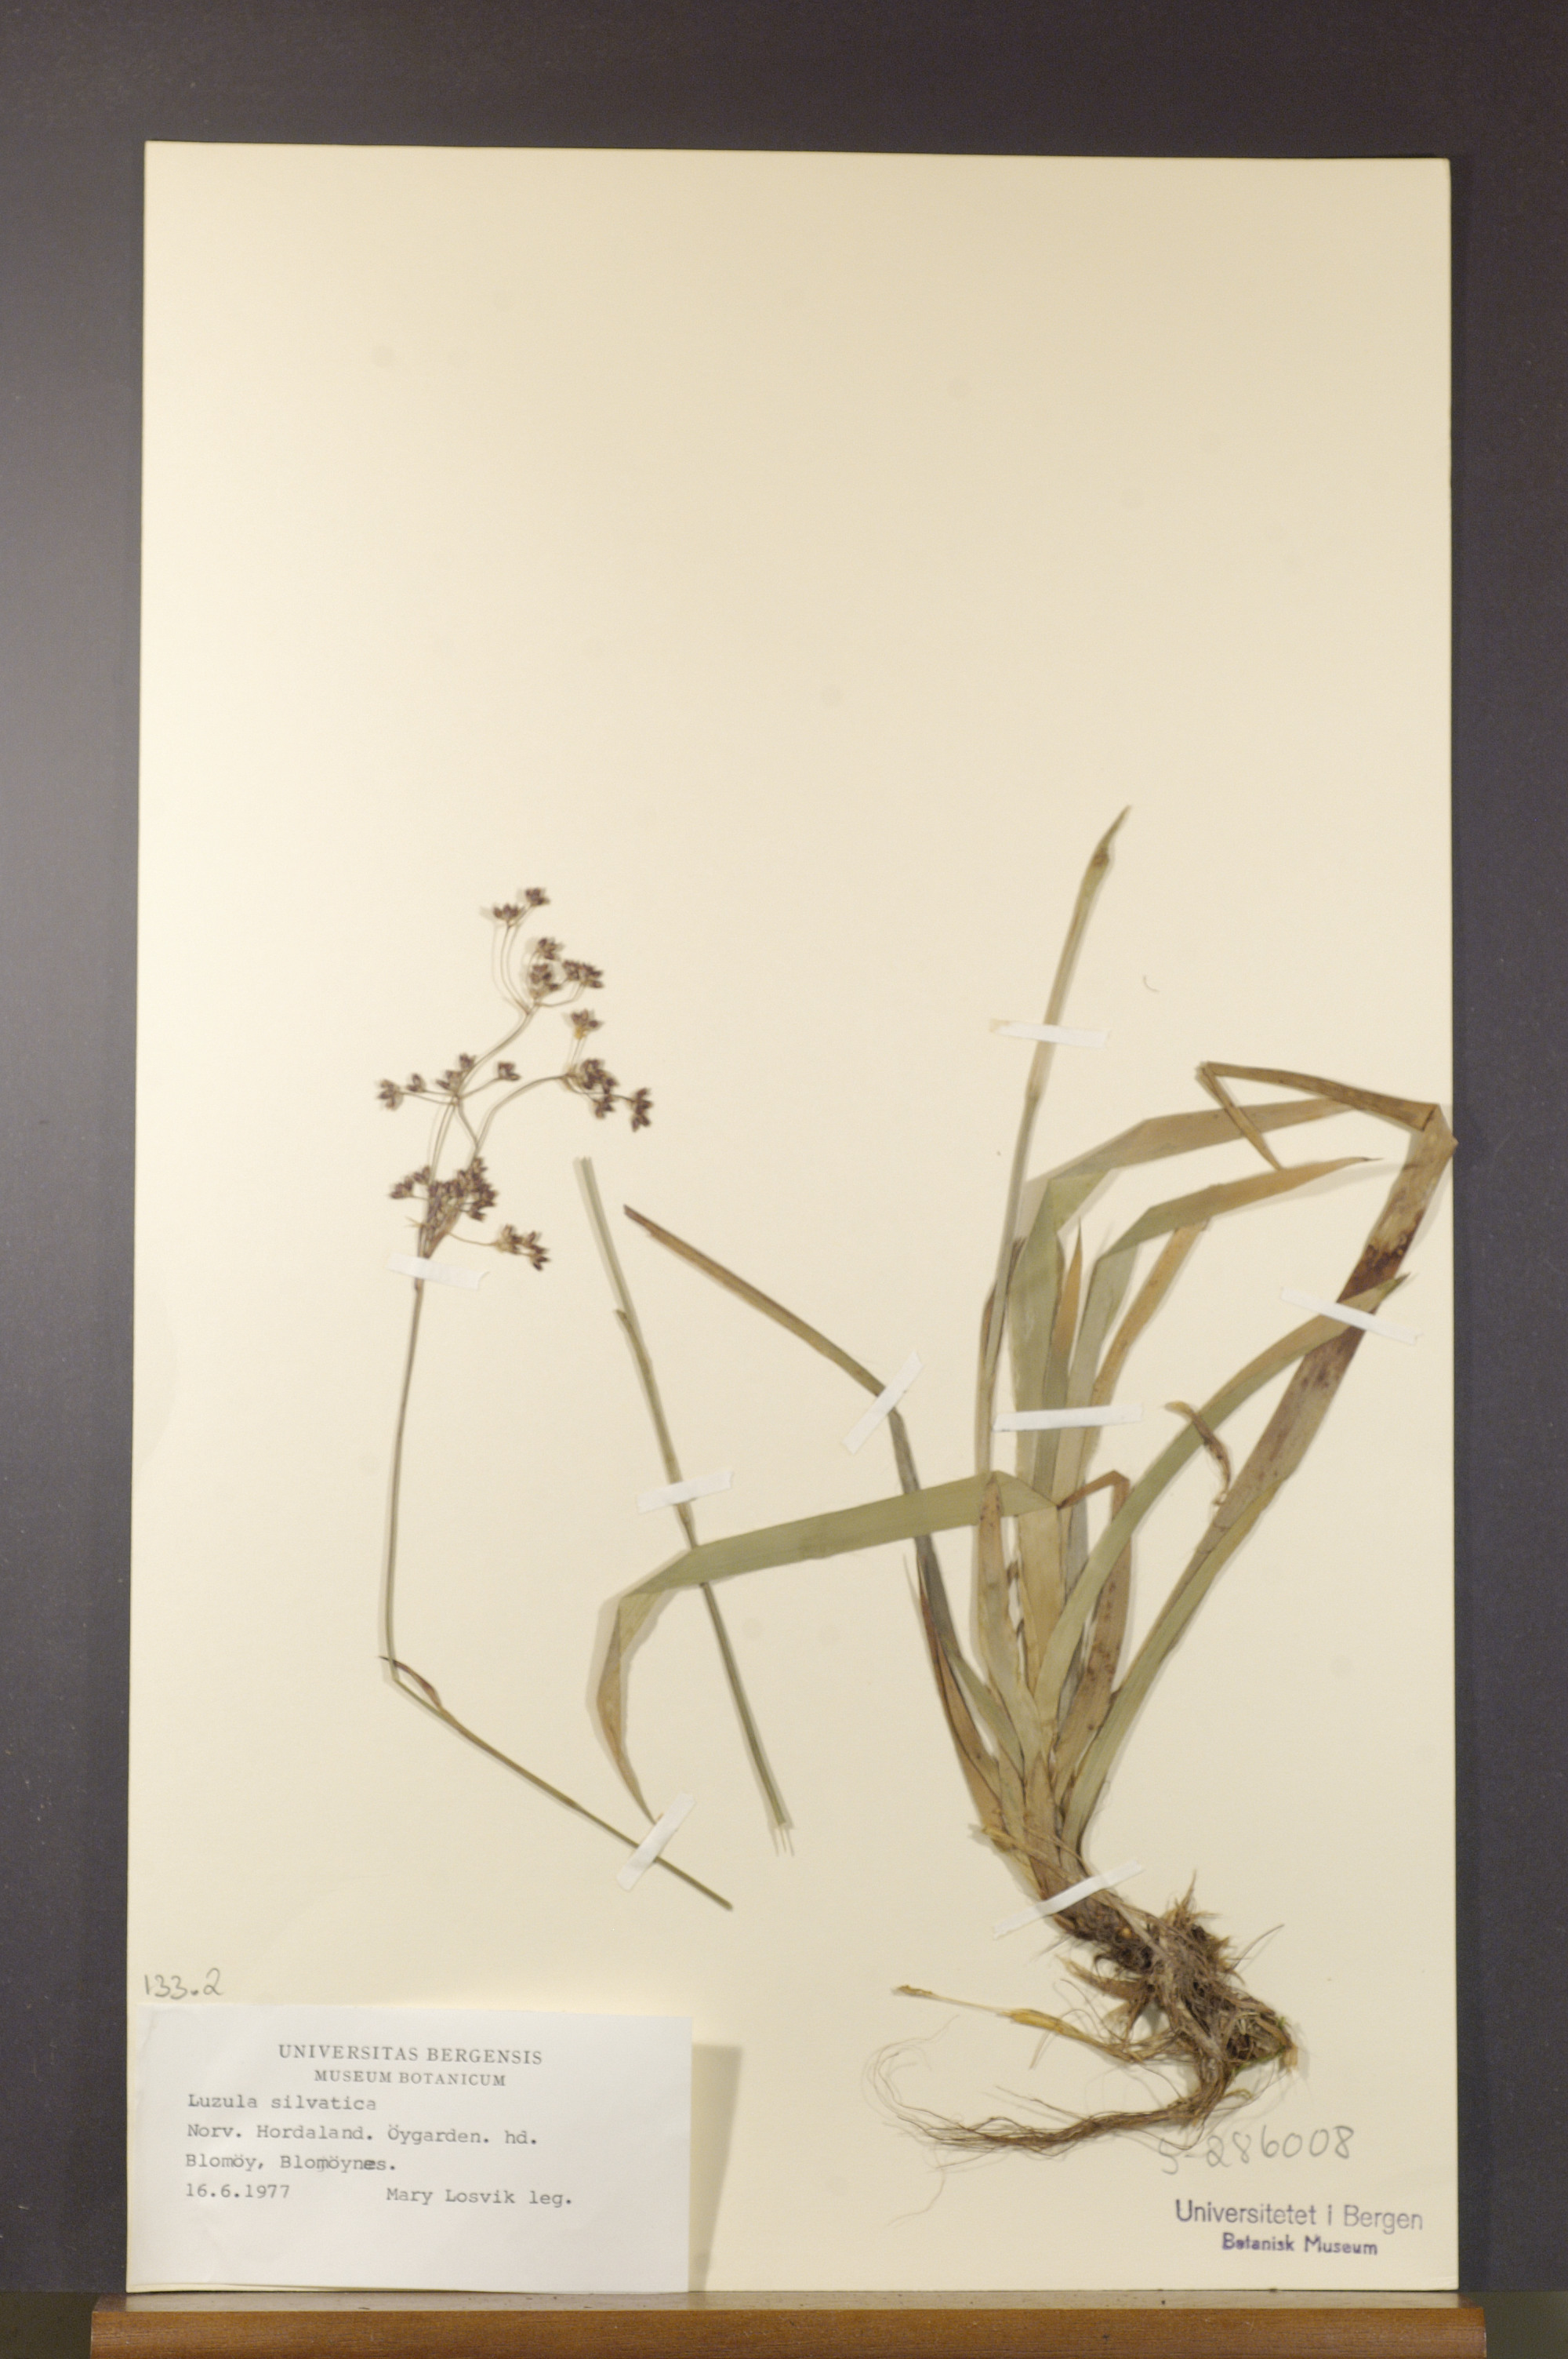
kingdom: Plantae
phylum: Tracheophyta
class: Liliopsida
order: Poales
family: Juncaceae
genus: Luzula
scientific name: Luzula sylvatica
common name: Great wood-rush
